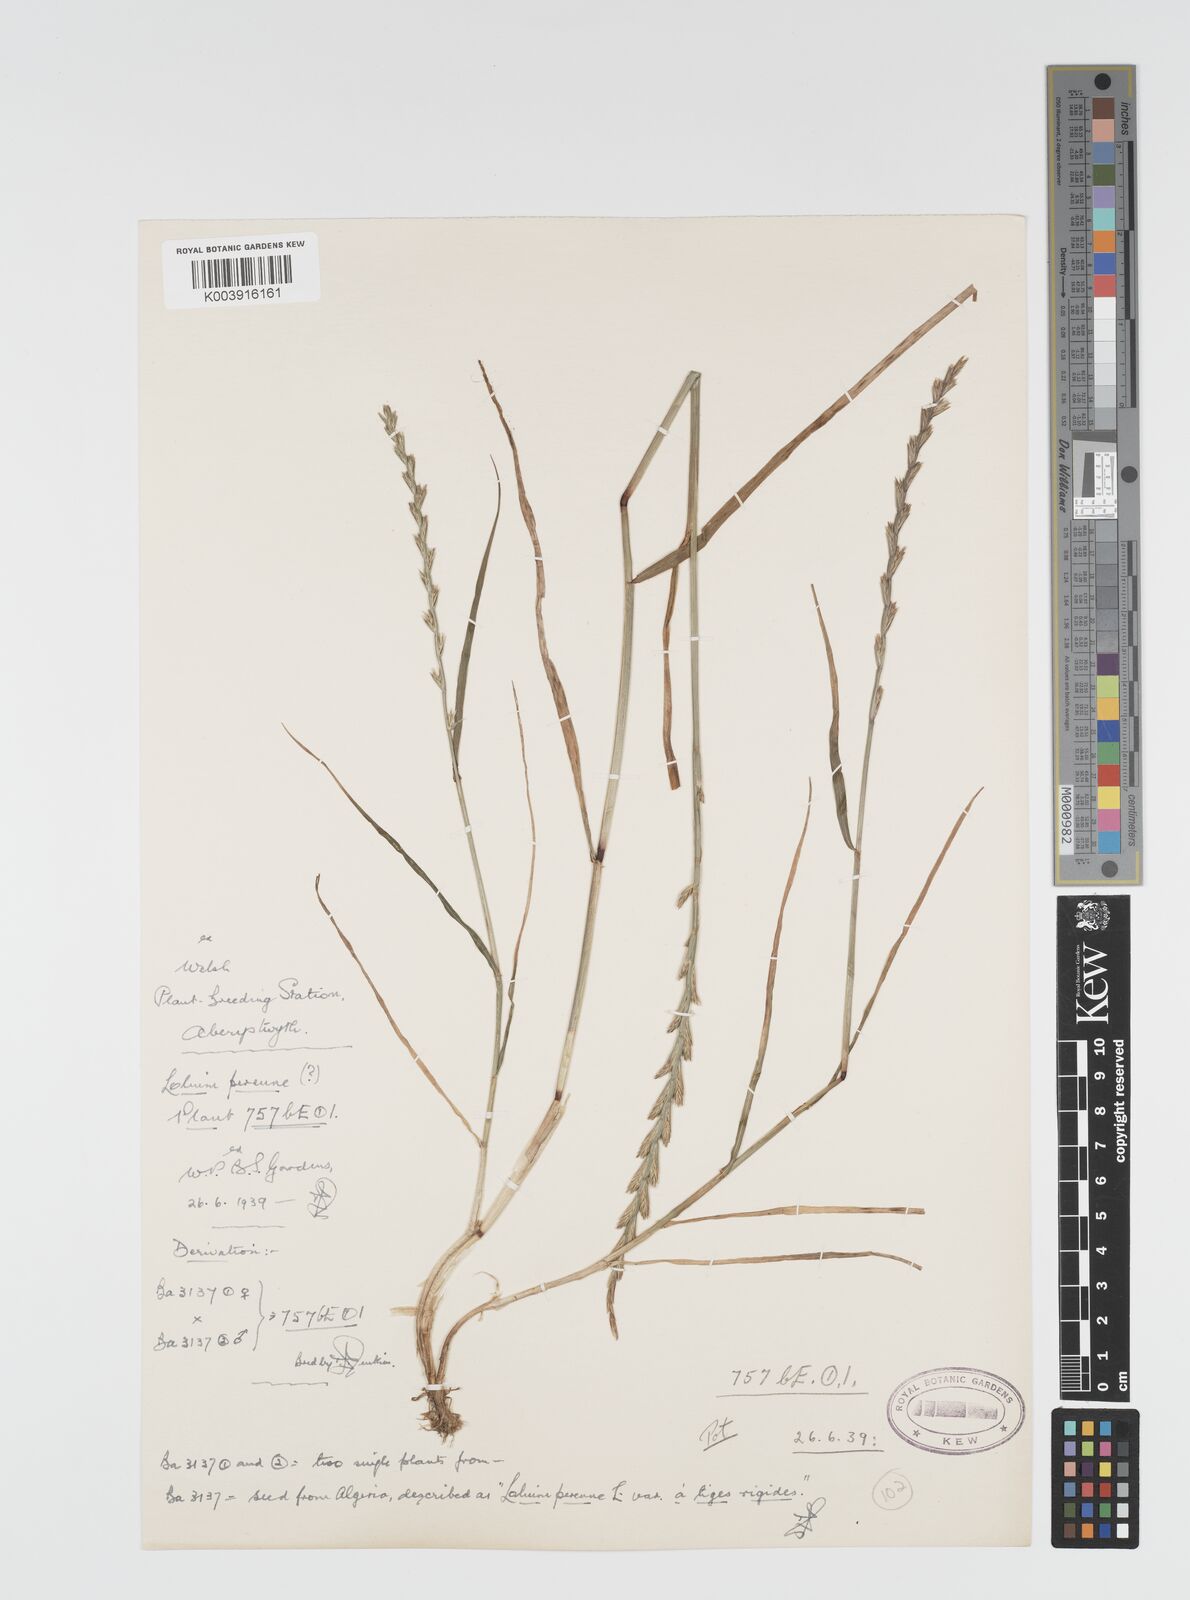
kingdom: Plantae
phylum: Tracheophyta
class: Liliopsida
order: Poales
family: Poaceae
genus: Lolium
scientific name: Lolium rigidum
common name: Wimmera ryegrass
